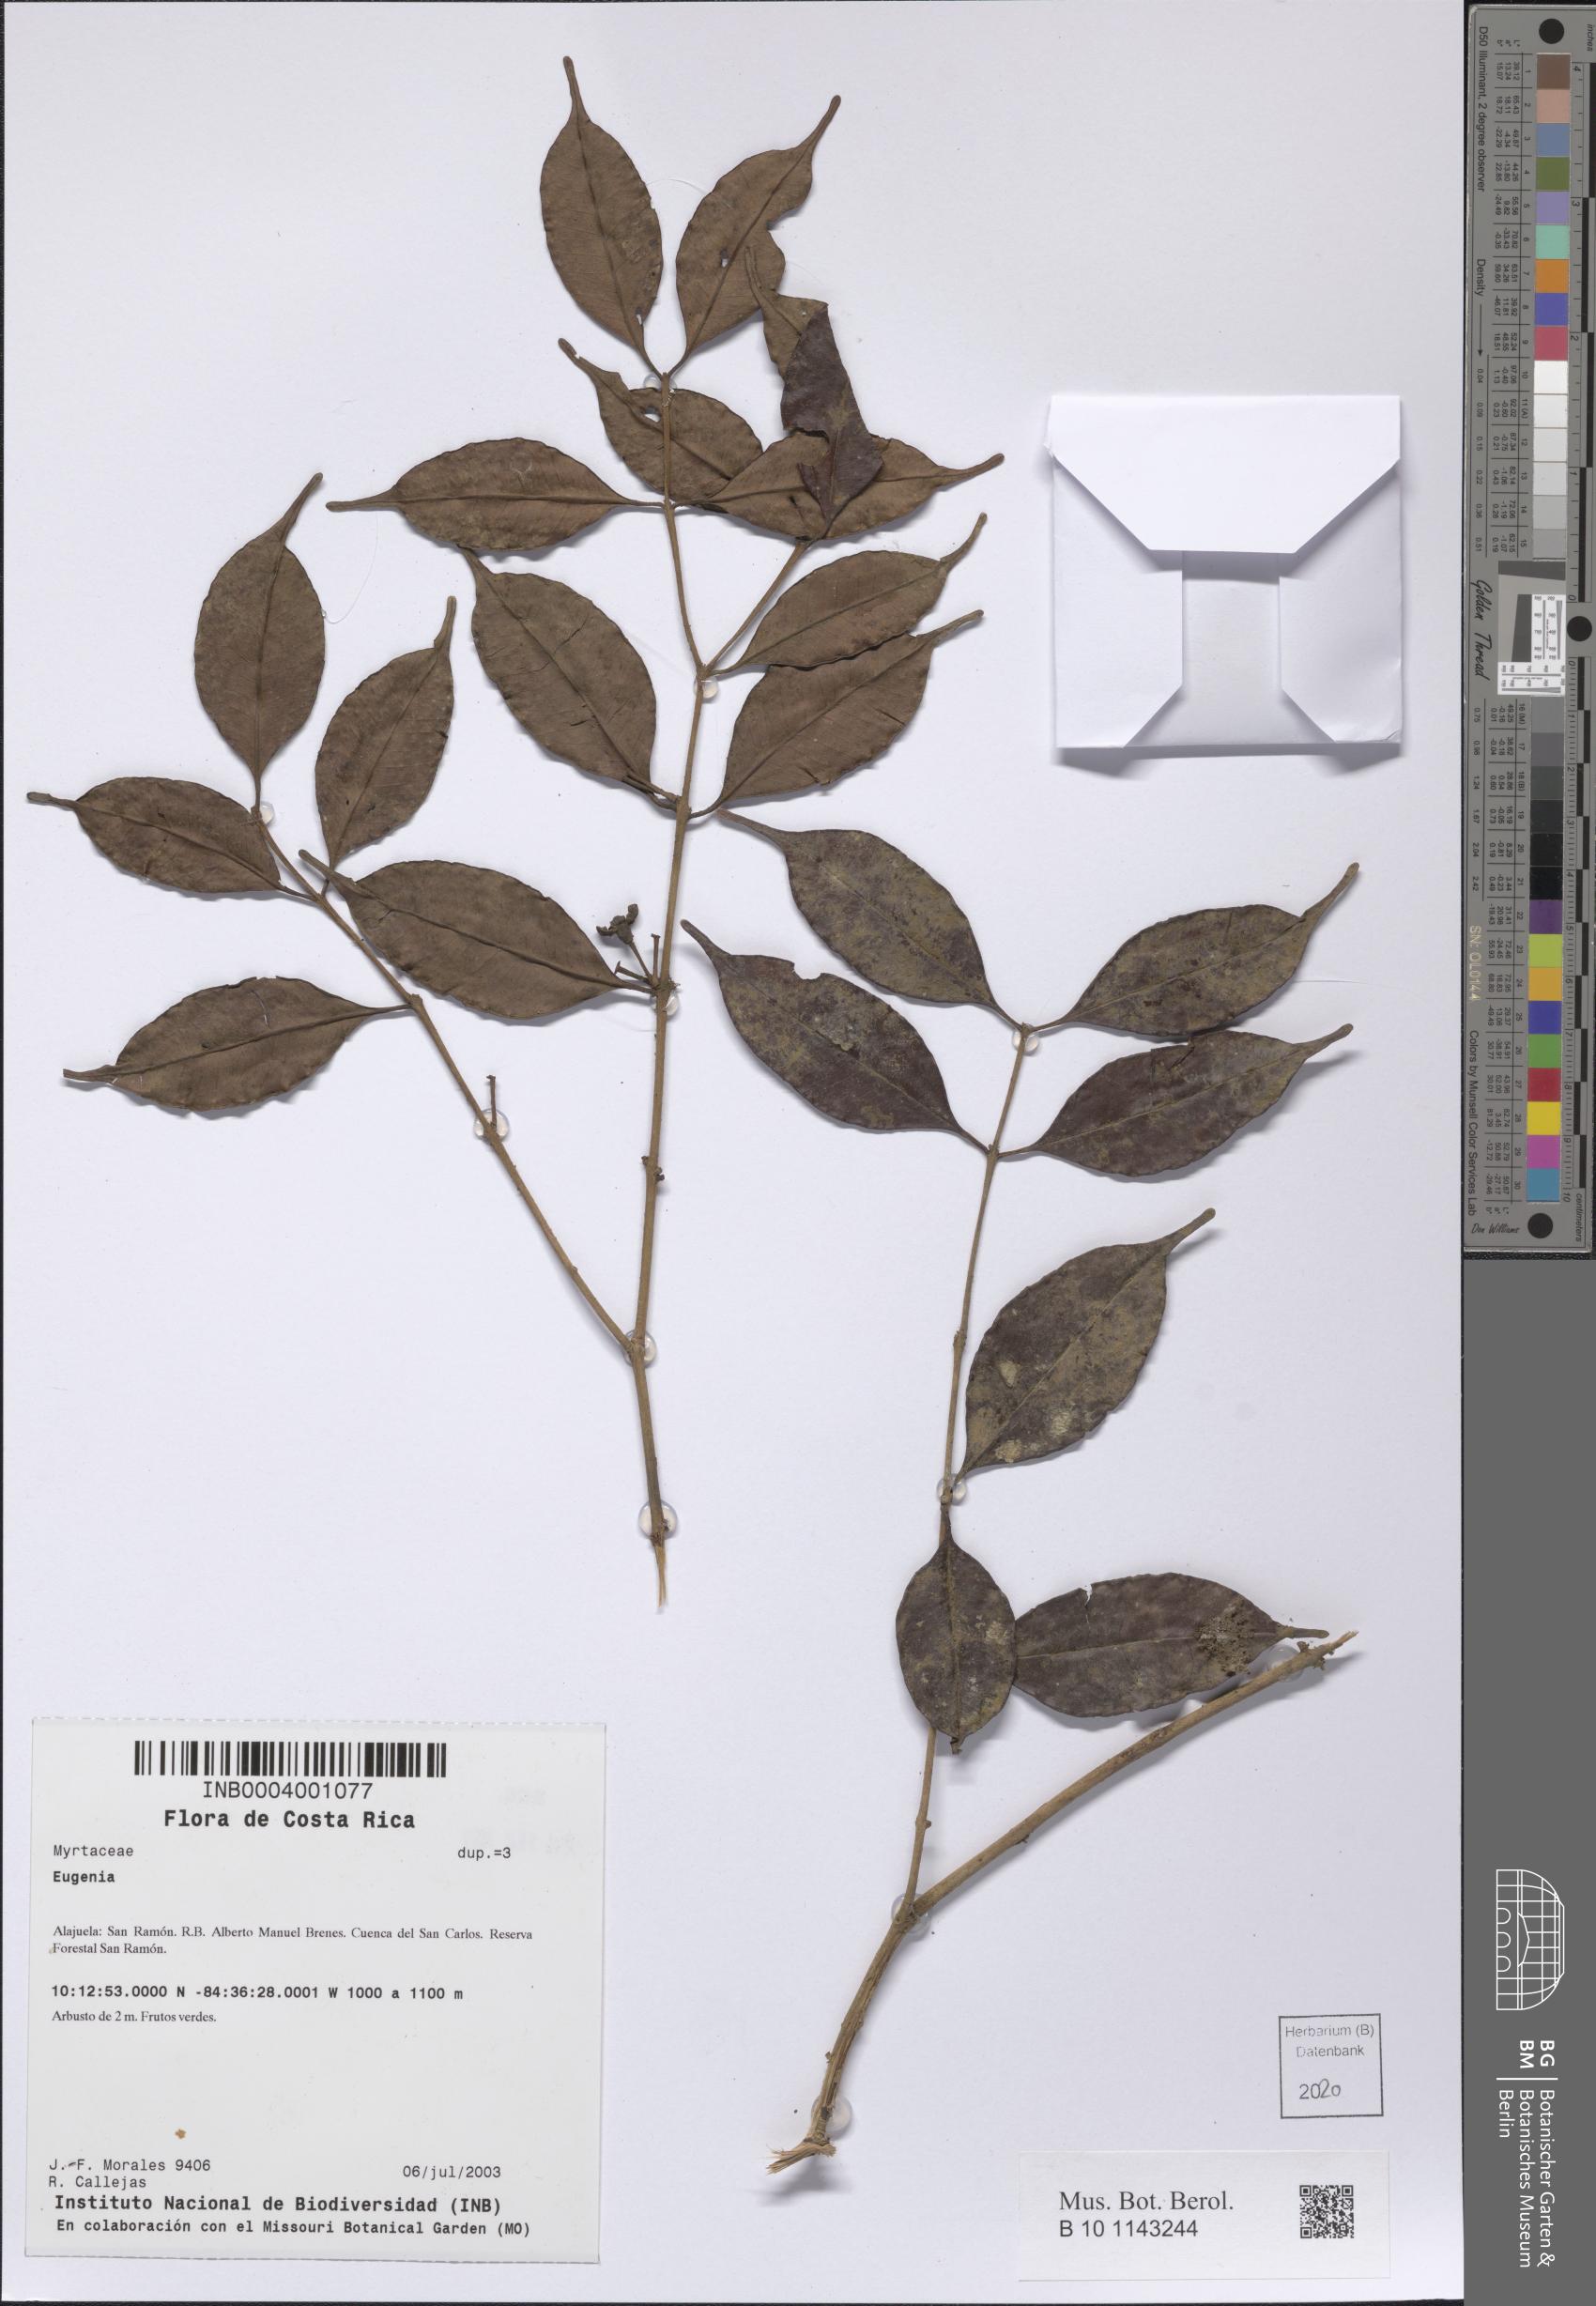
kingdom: Plantae
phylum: Tracheophyta
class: Magnoliopsida
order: Myrtales
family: Myrtaceae
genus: Eugenia
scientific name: Eugenia
